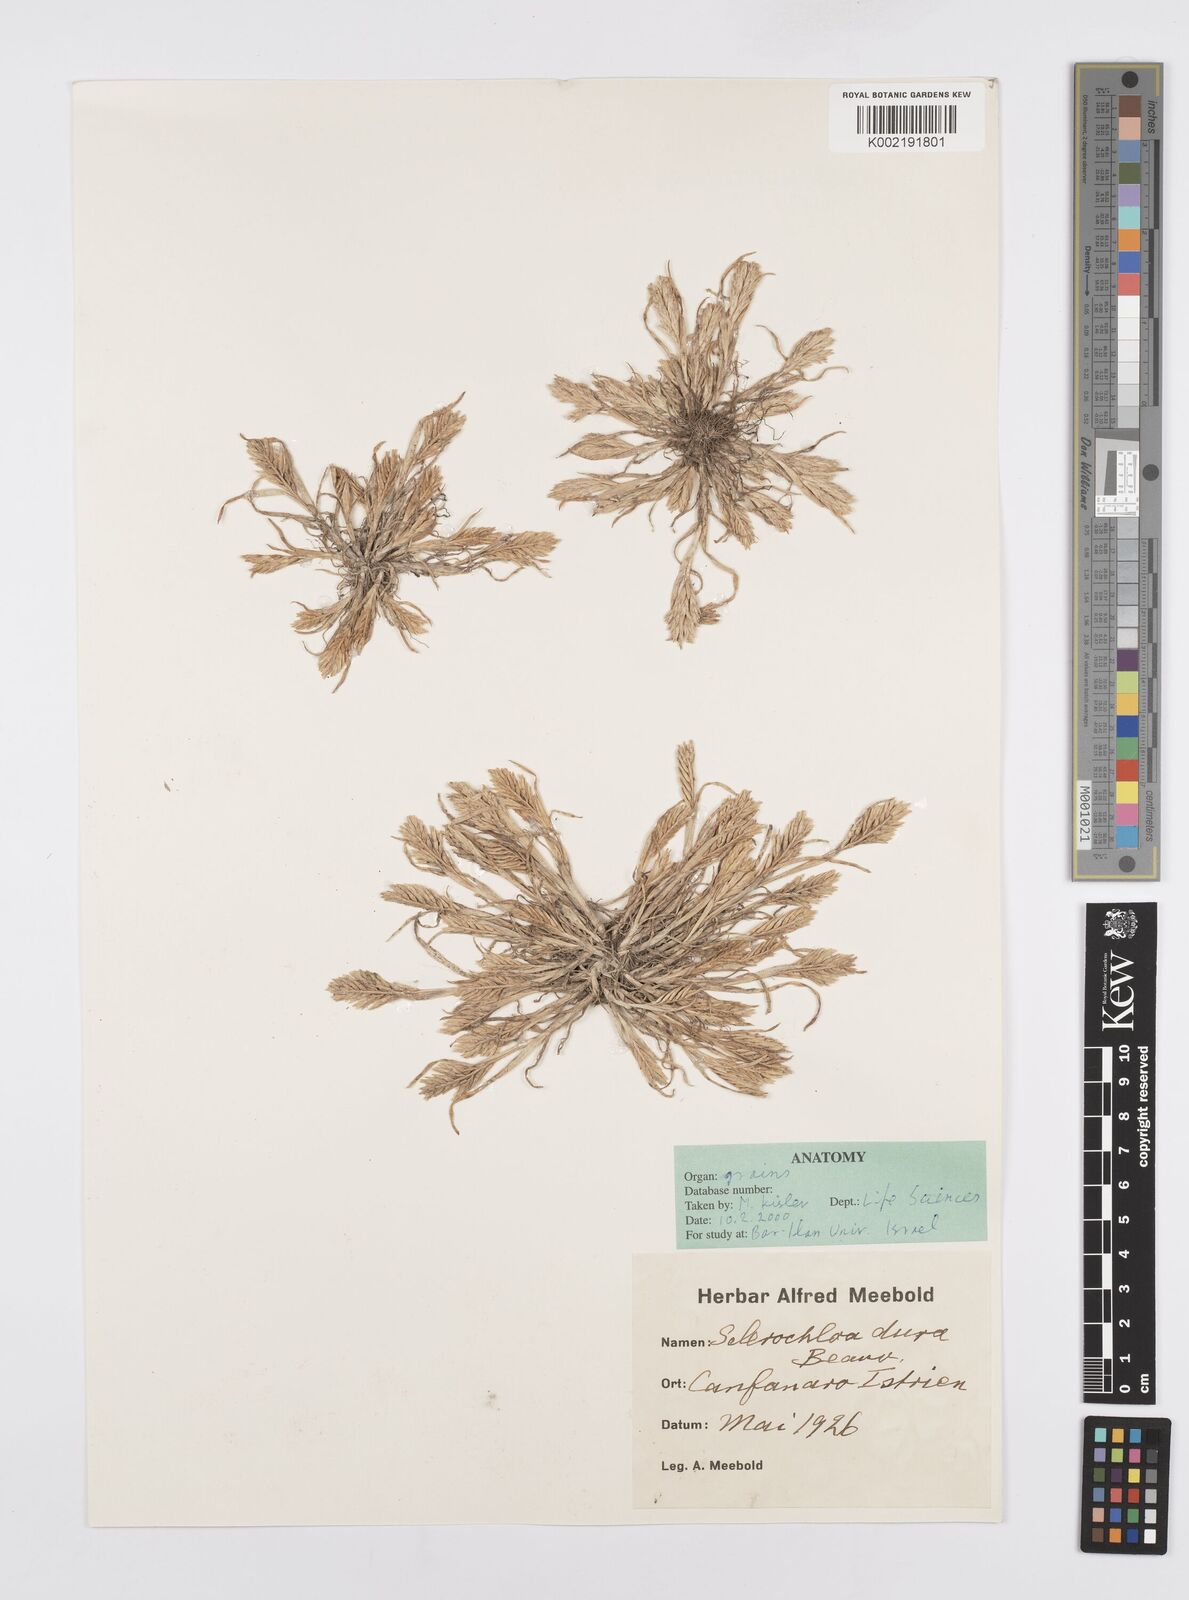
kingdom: Plantae
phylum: Tracheophyta
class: Liliopsida
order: Poales
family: Poaceae
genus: Sclerochloa
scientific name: Sclerochloa dura
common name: Common hardgrass
